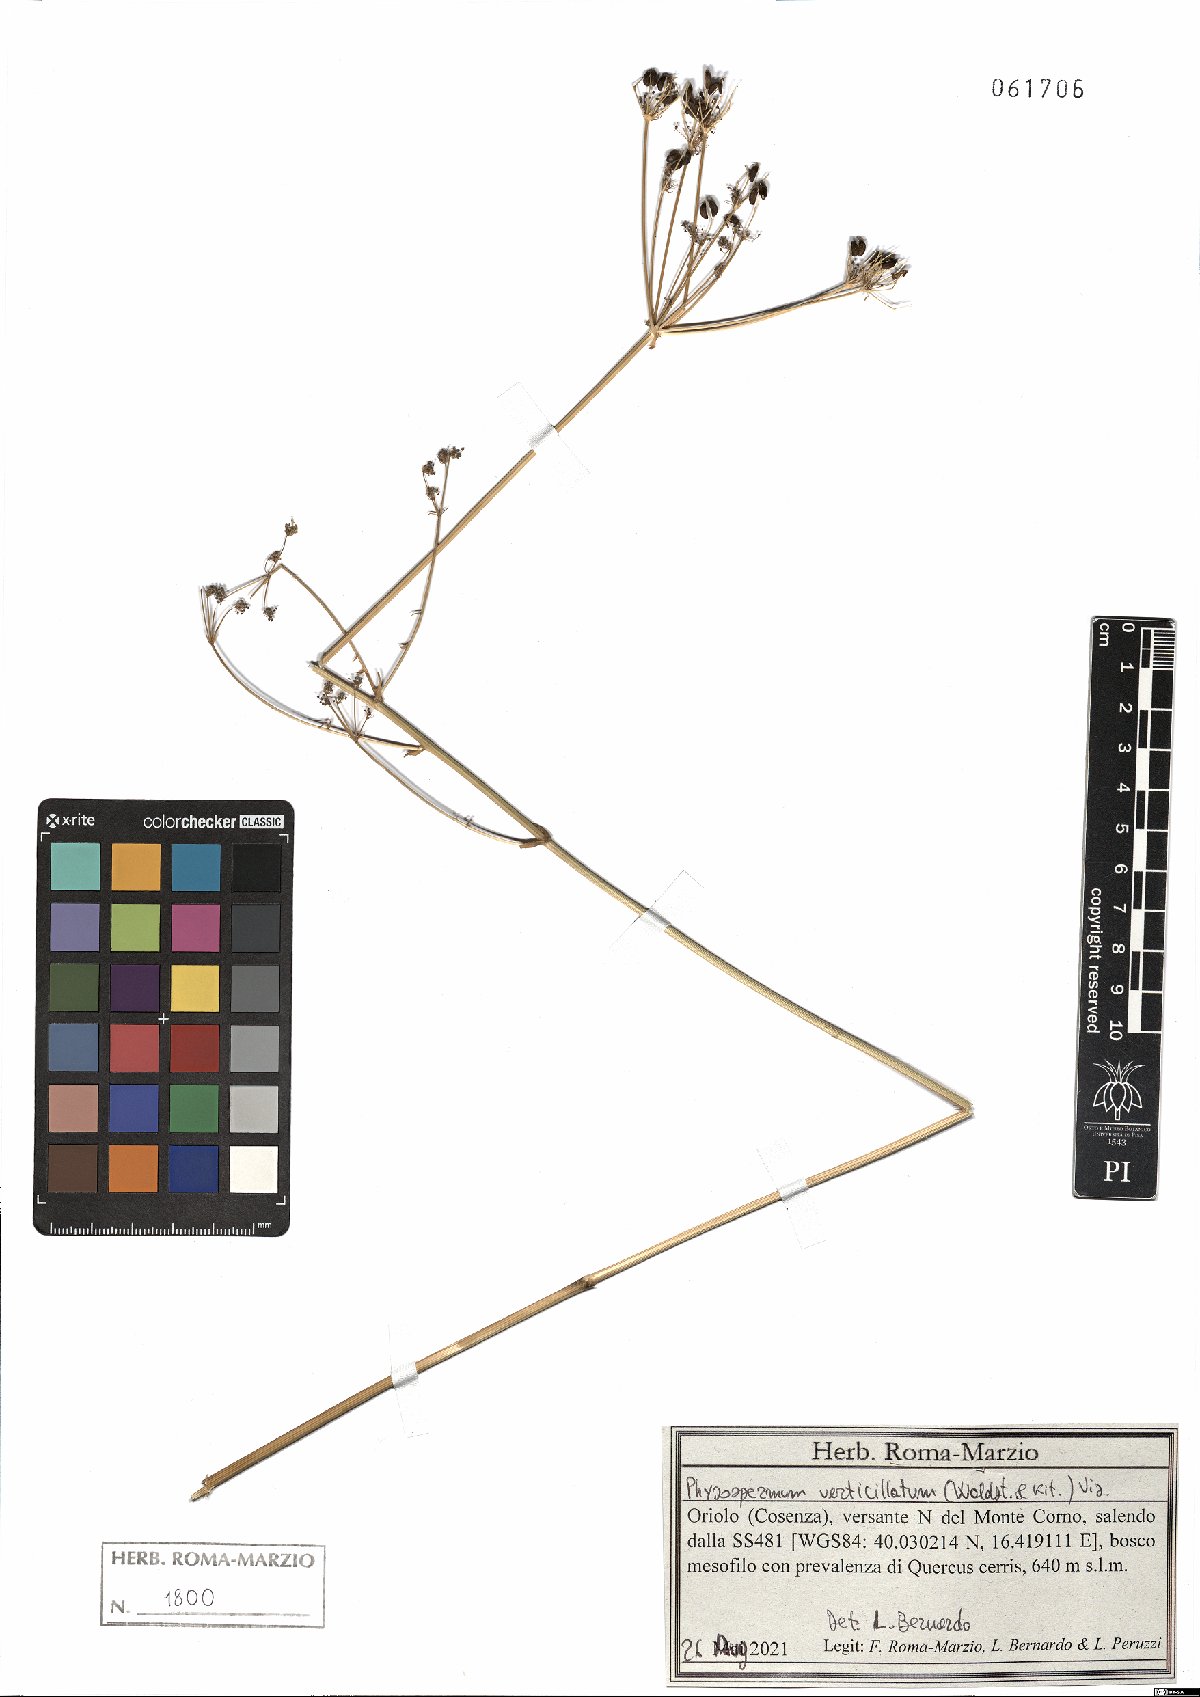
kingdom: Plantae
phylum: Tracheophyta
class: Magnoliopsida
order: Apiales
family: Apiaceae
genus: Physospermum
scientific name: Physospermum verticillatum
